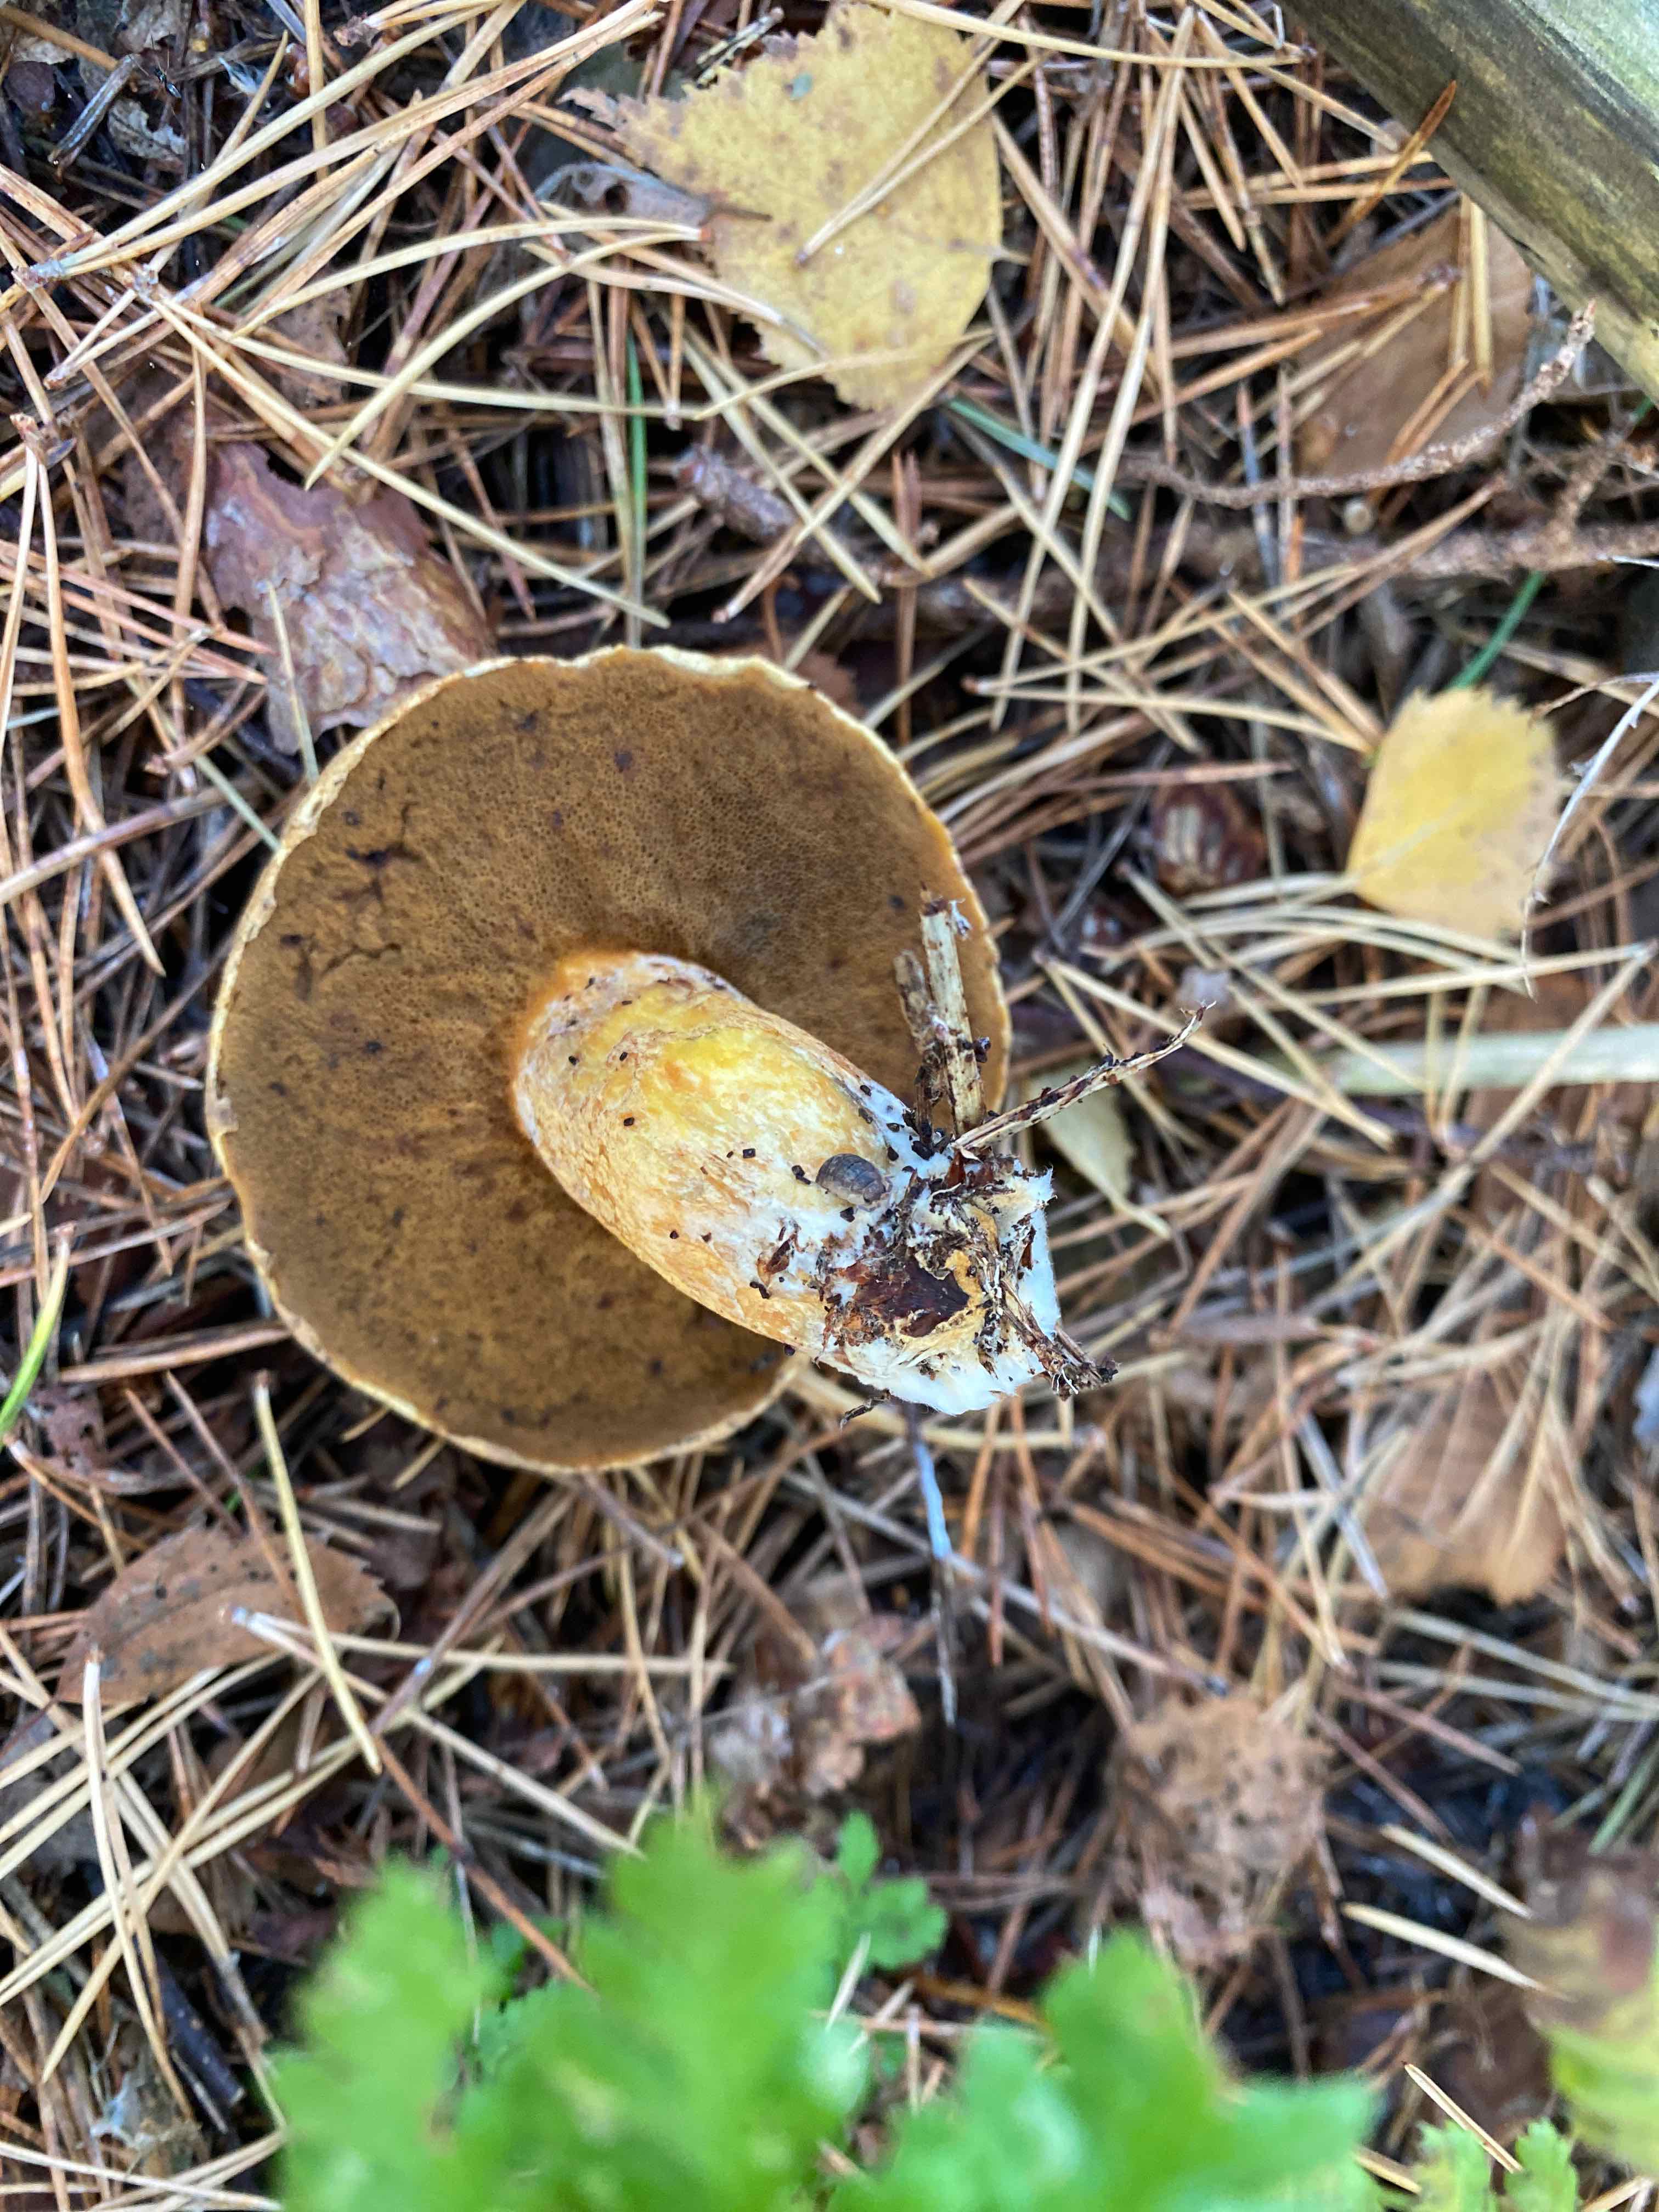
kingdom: Fungi
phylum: Basidiomycota
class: Agaricomycetes
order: Boletales
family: Suillaceae
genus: Suillus
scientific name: Suillus variegatus
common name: broget slimrørhat
